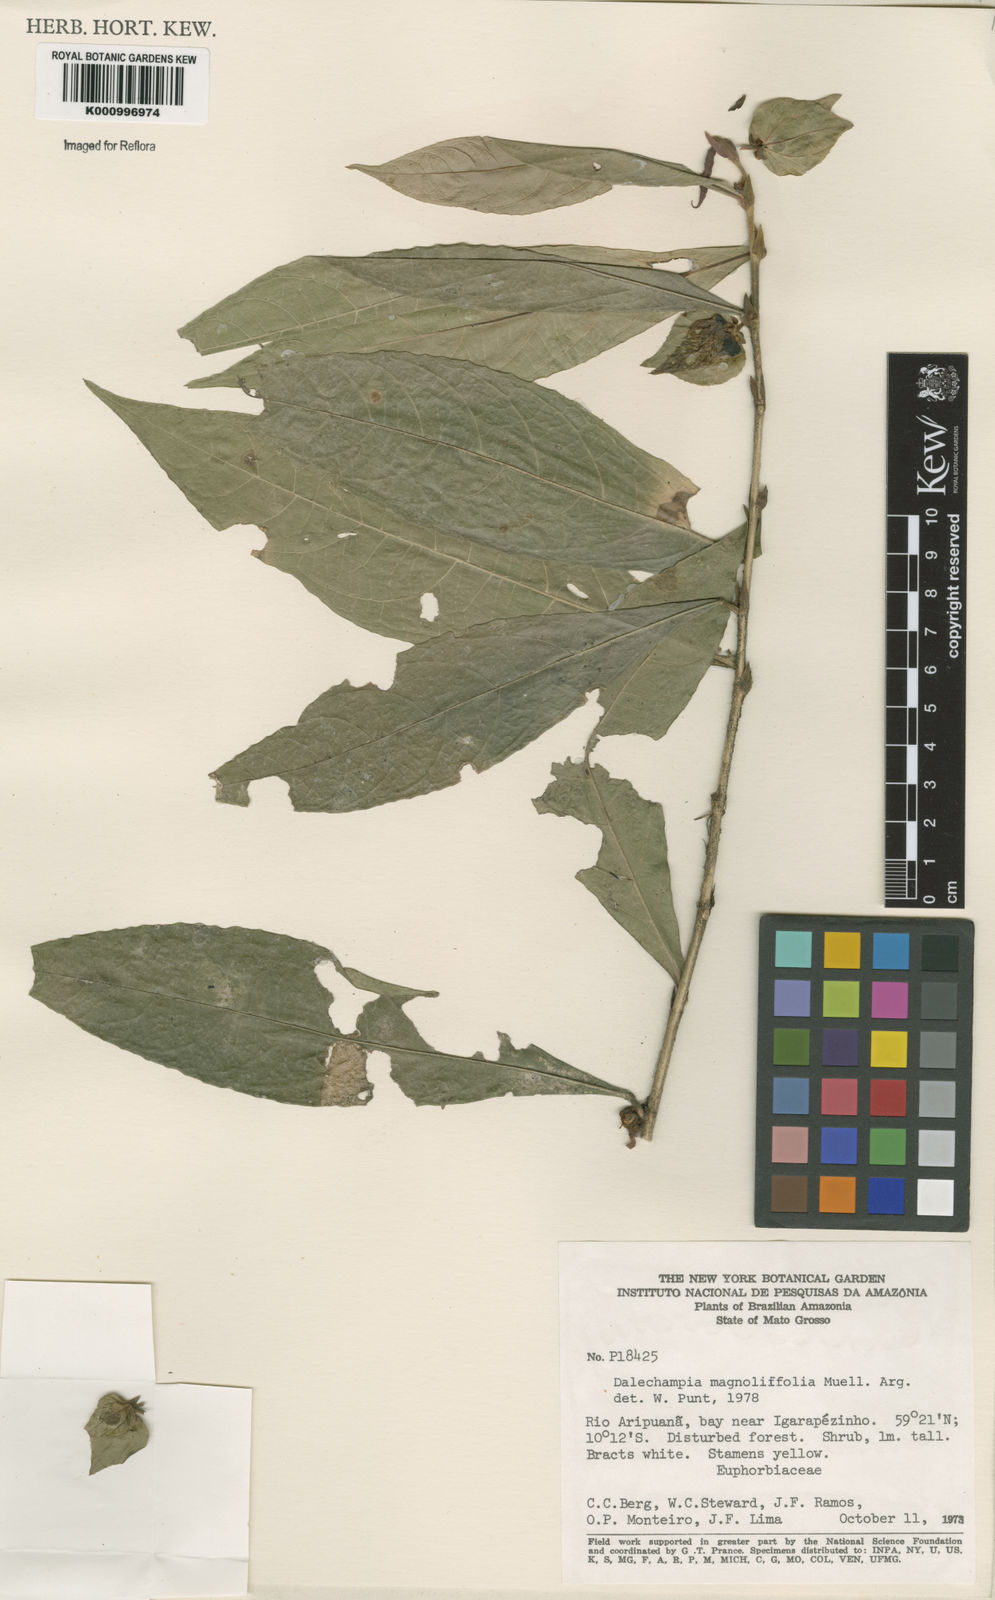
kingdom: Plantae
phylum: Tracheophyta
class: Magnoliopsida
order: Malpighiales
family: Euphorbiaceae
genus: Dalechampia
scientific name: Dalechampia
